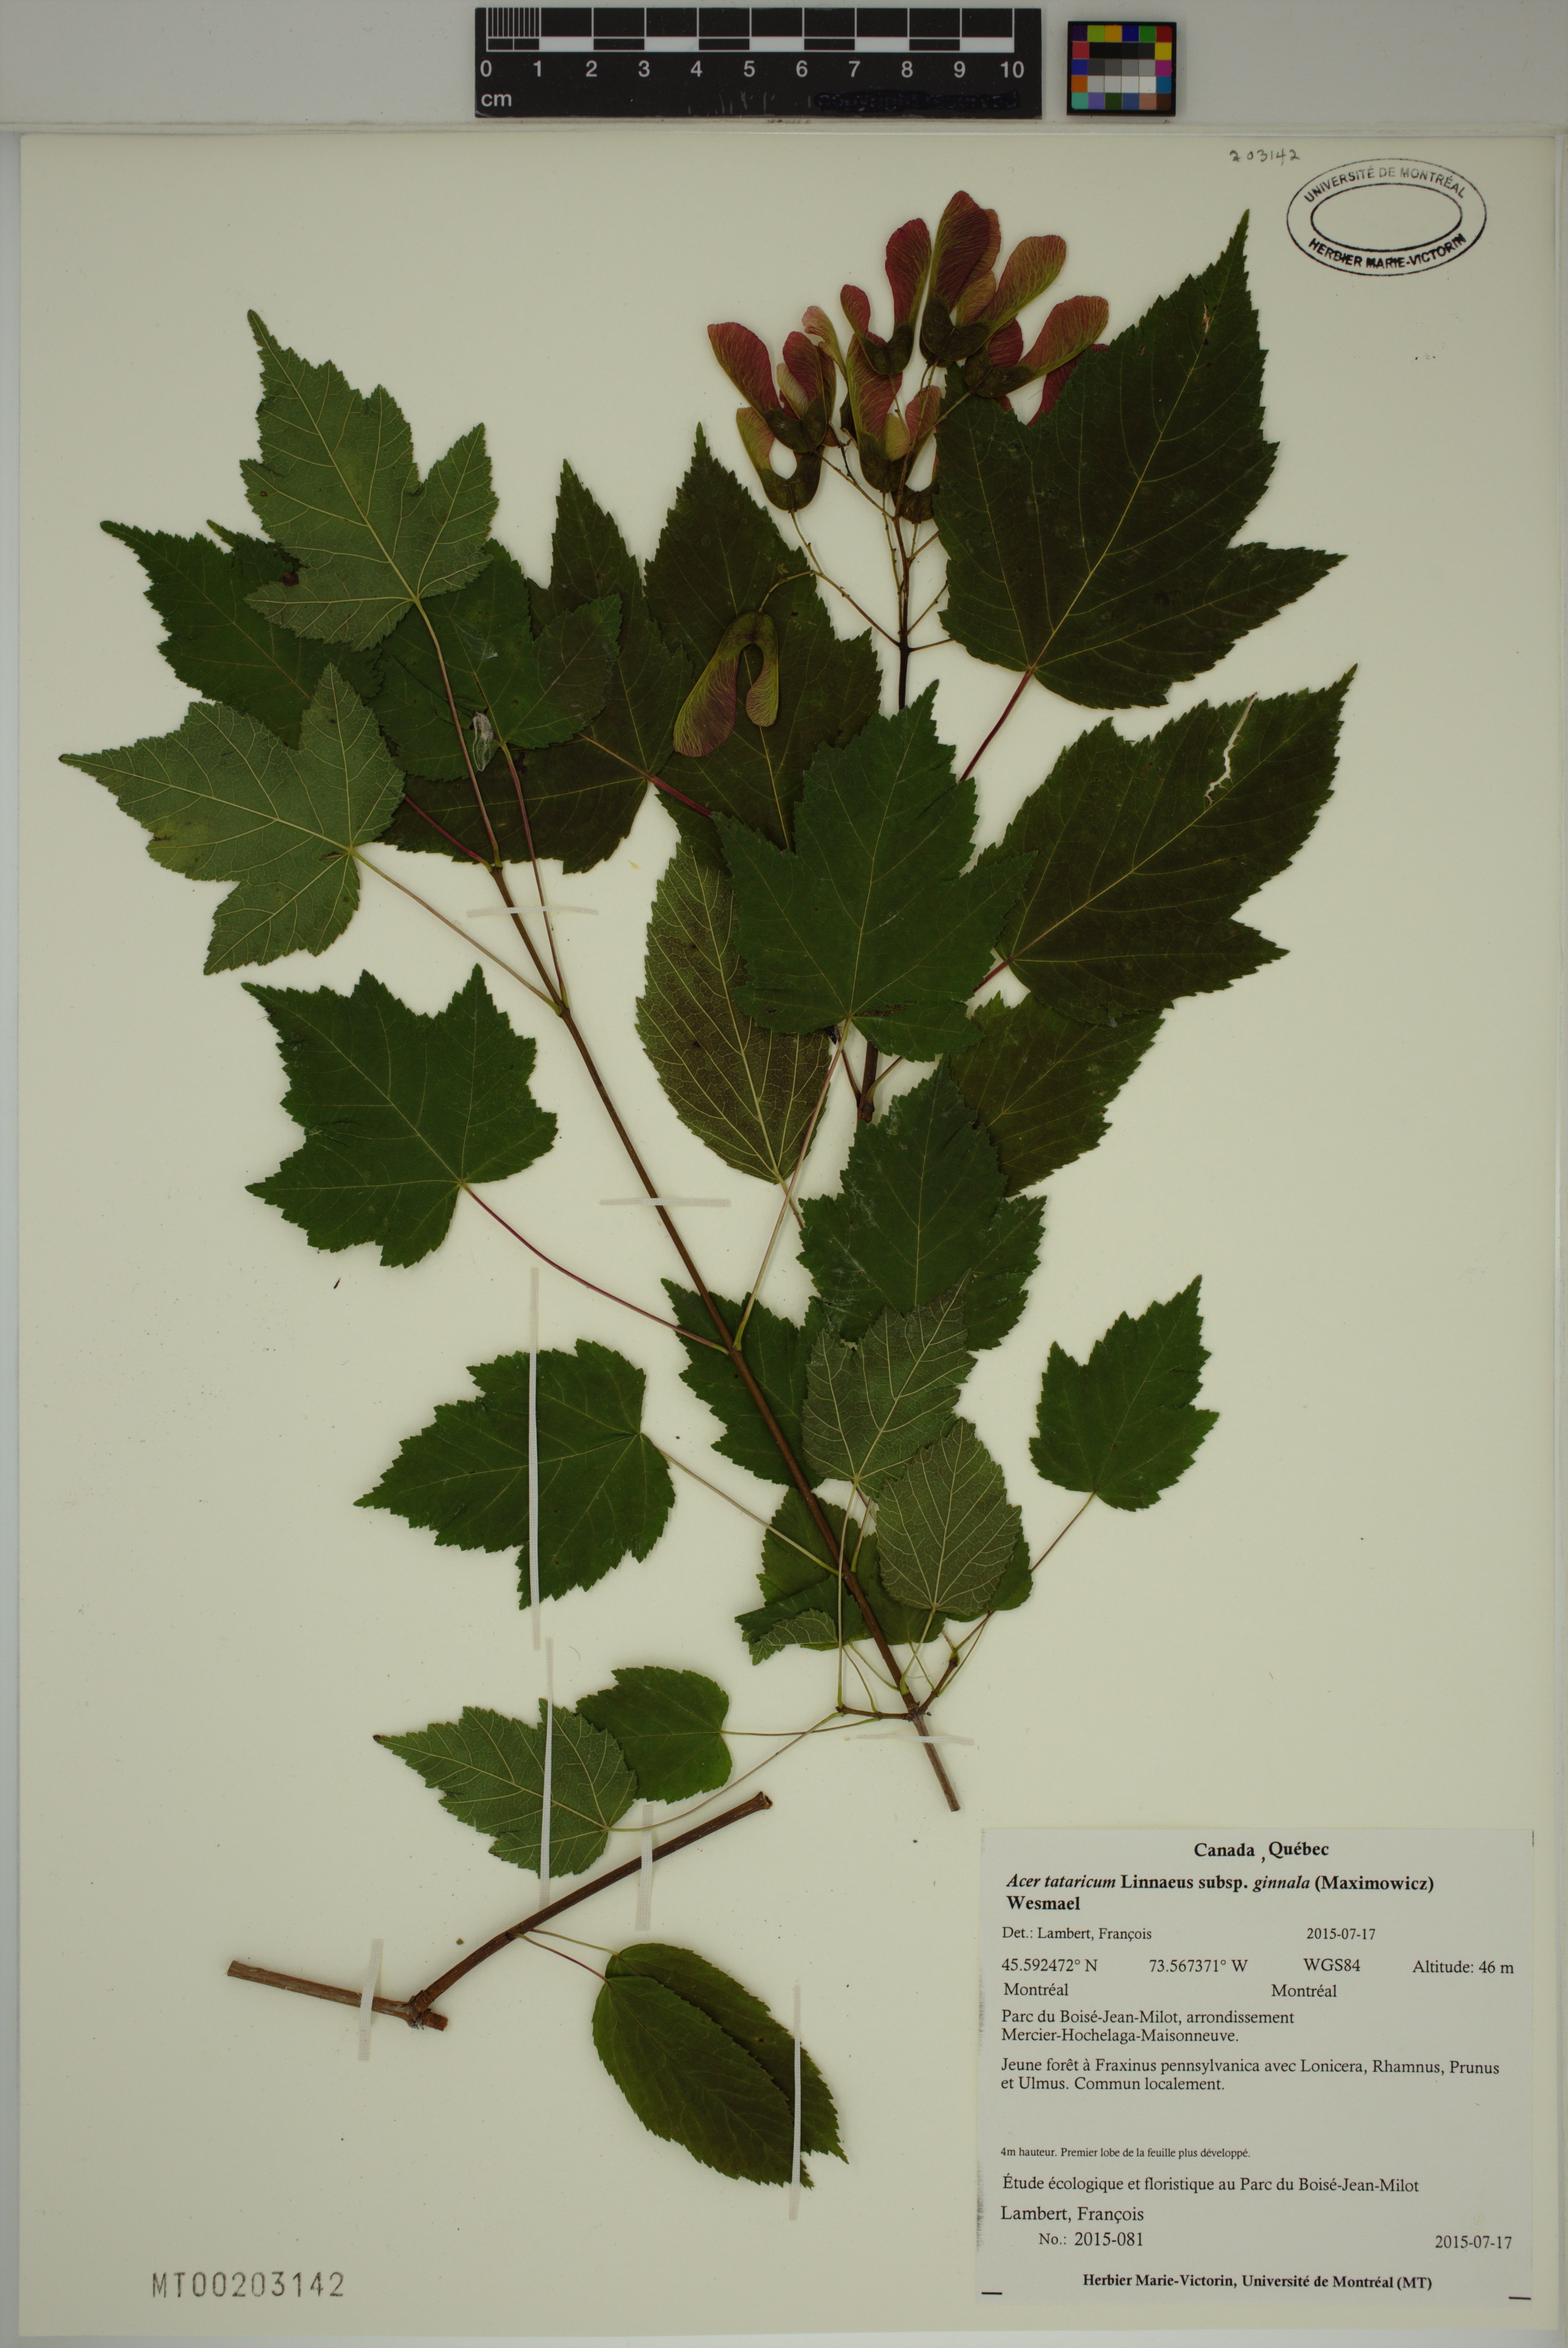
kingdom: Plantae
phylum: Tracheophyta
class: Magnoliopsida
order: Sapindales
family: Sapindaceae
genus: Acer
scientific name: Acer tataricum
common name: Tartar maple
